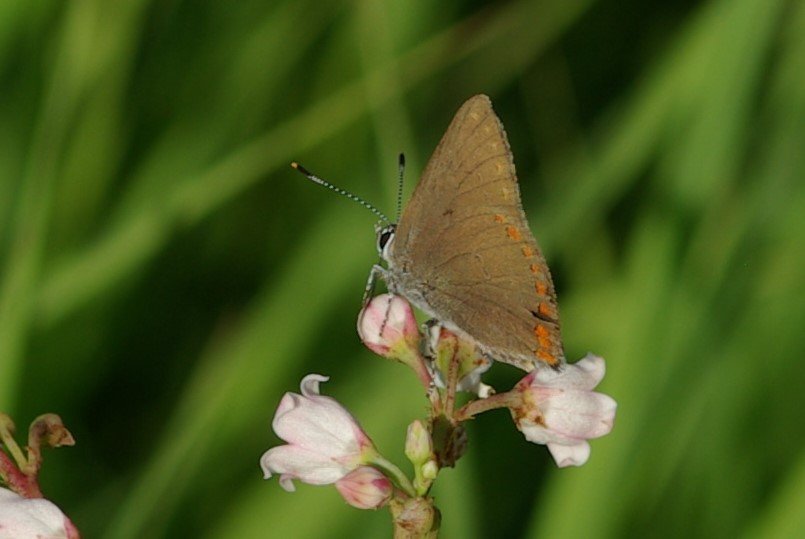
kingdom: Animalia
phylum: Arthropoda
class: Insecta
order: Lepidoptera
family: Lycaenidae
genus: Harkenclenus
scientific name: Harkenclenus titus
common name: Coral Hairstreak
